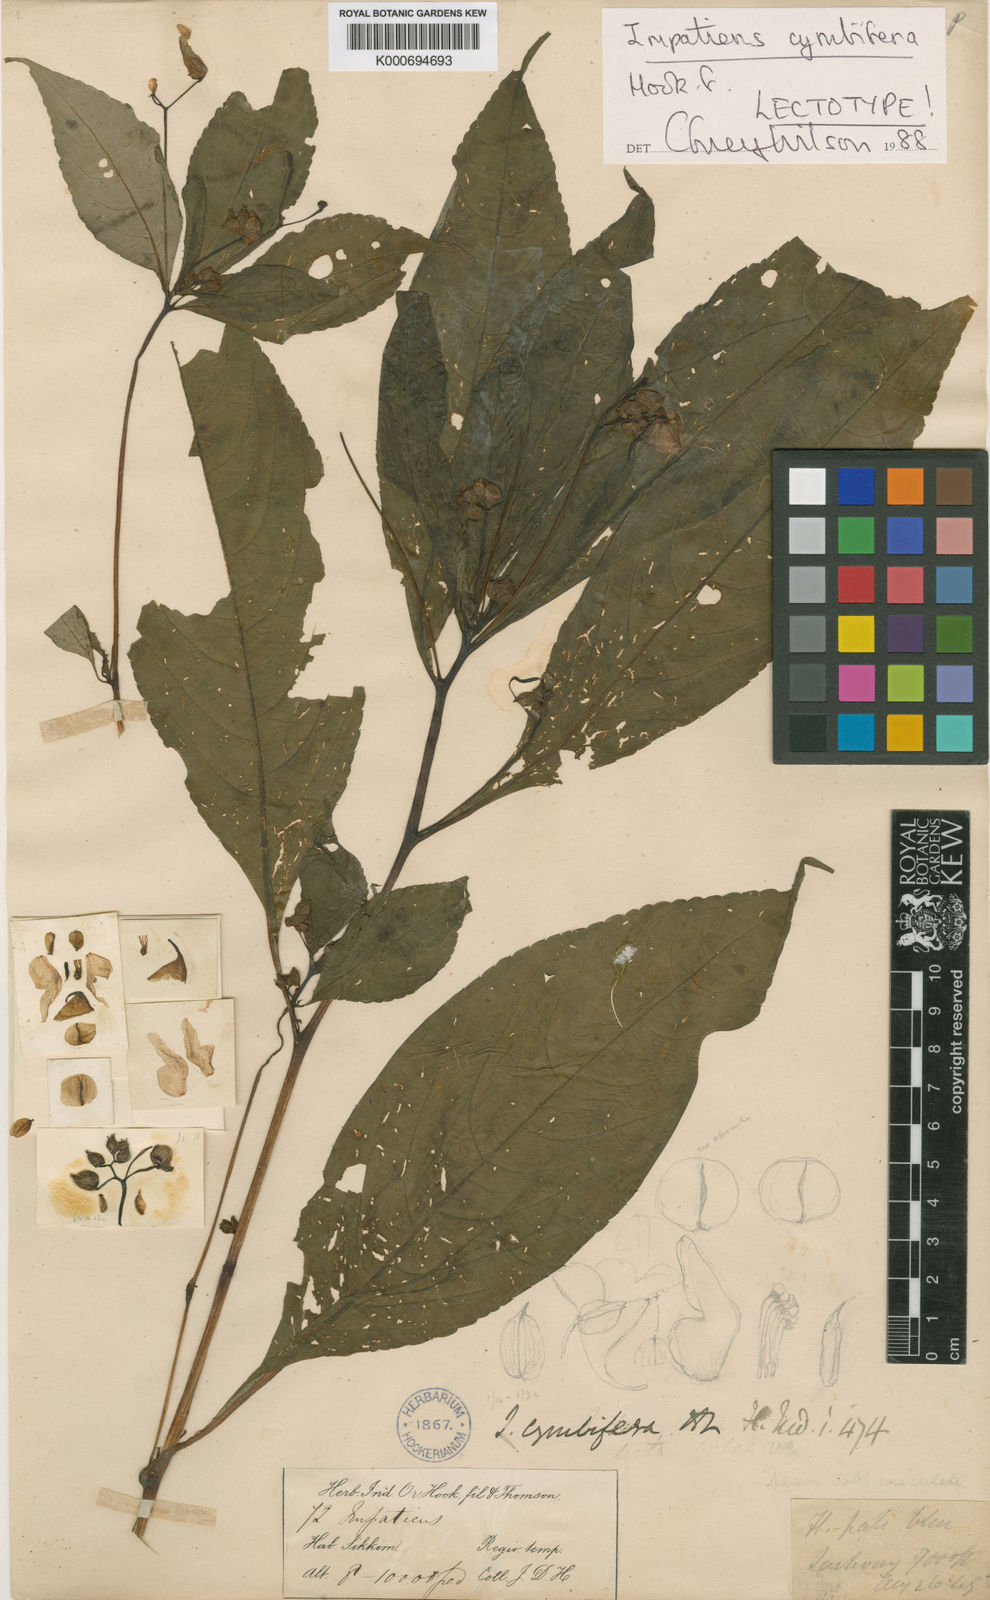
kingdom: Plantae
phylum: Tracheophyta
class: Magnoliopsida
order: Ericales
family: Balsaminaceae
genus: Impatiens
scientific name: Impatiens cymbifera
